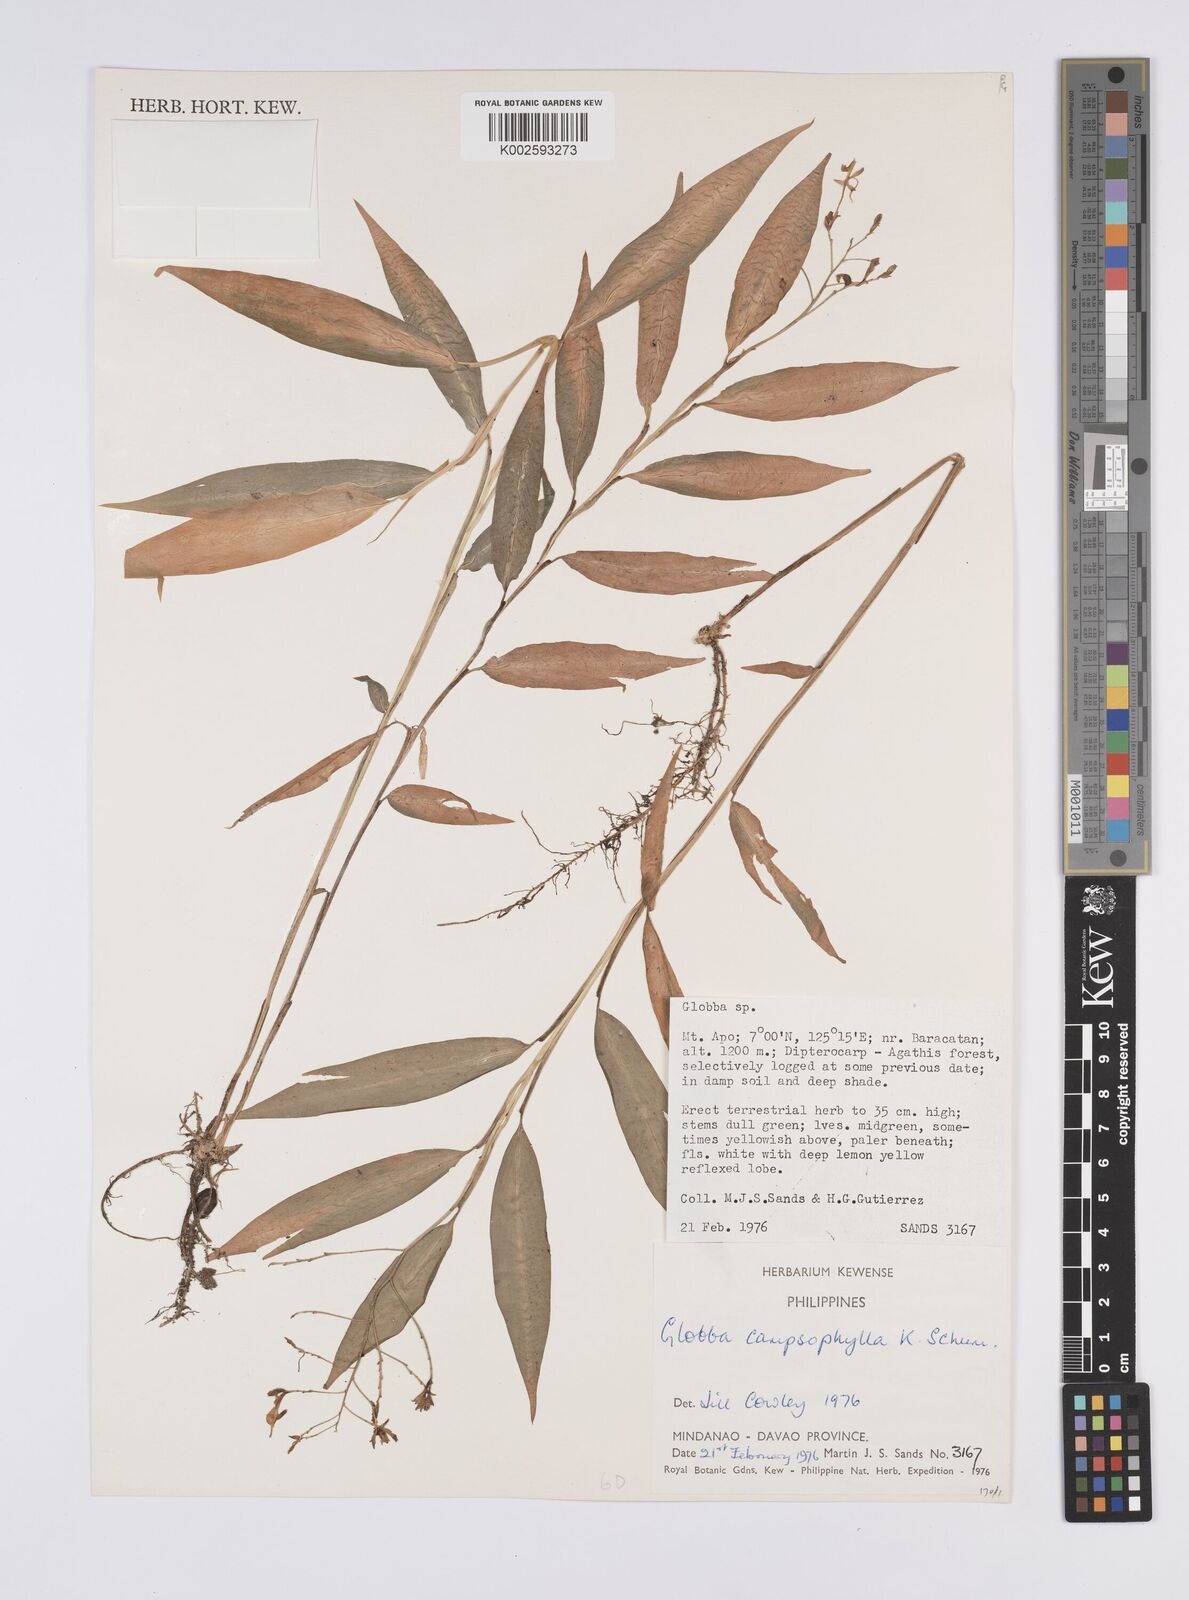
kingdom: Plantae
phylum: Tracheophyta
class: Liliopsida
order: Zingiberales
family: Zingiberaceae
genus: Globba
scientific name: Globba campsophylla
